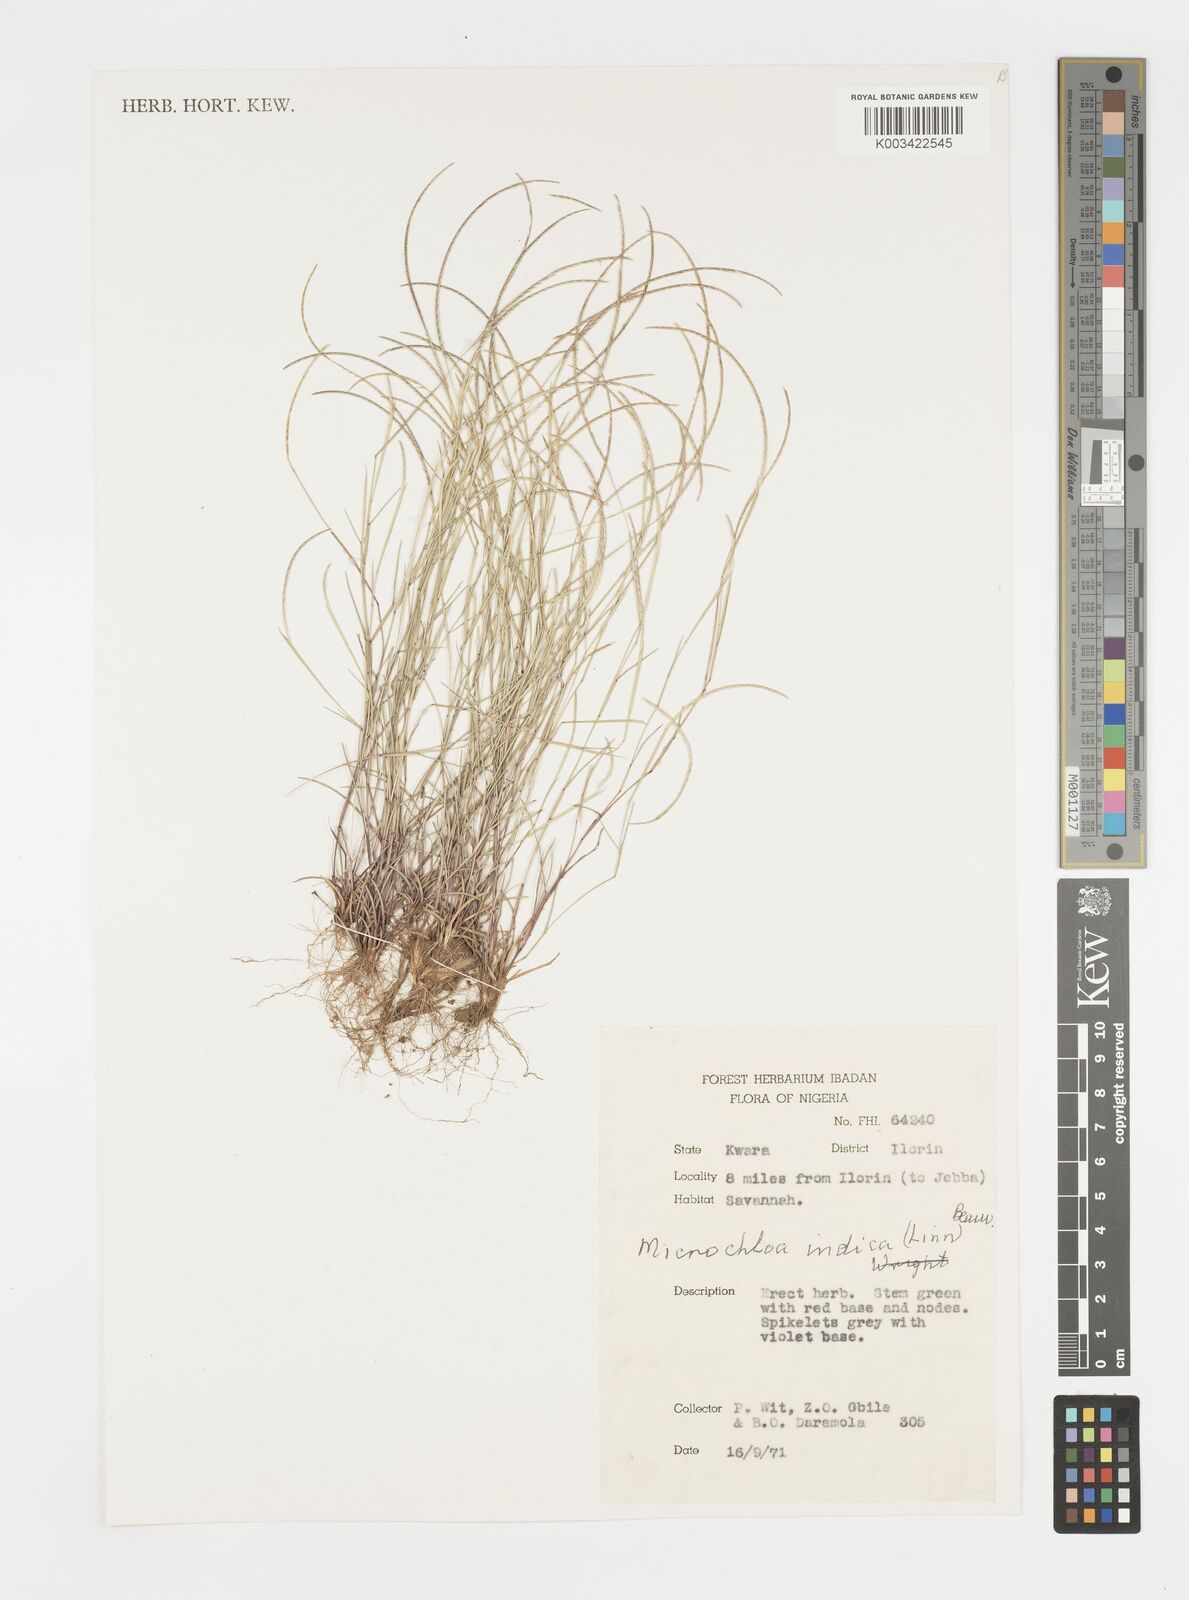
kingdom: Plantae
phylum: Tracheophyta
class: Liliopsida
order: Poales
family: Poaceae
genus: Microchloa
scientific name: Microchloa indica
